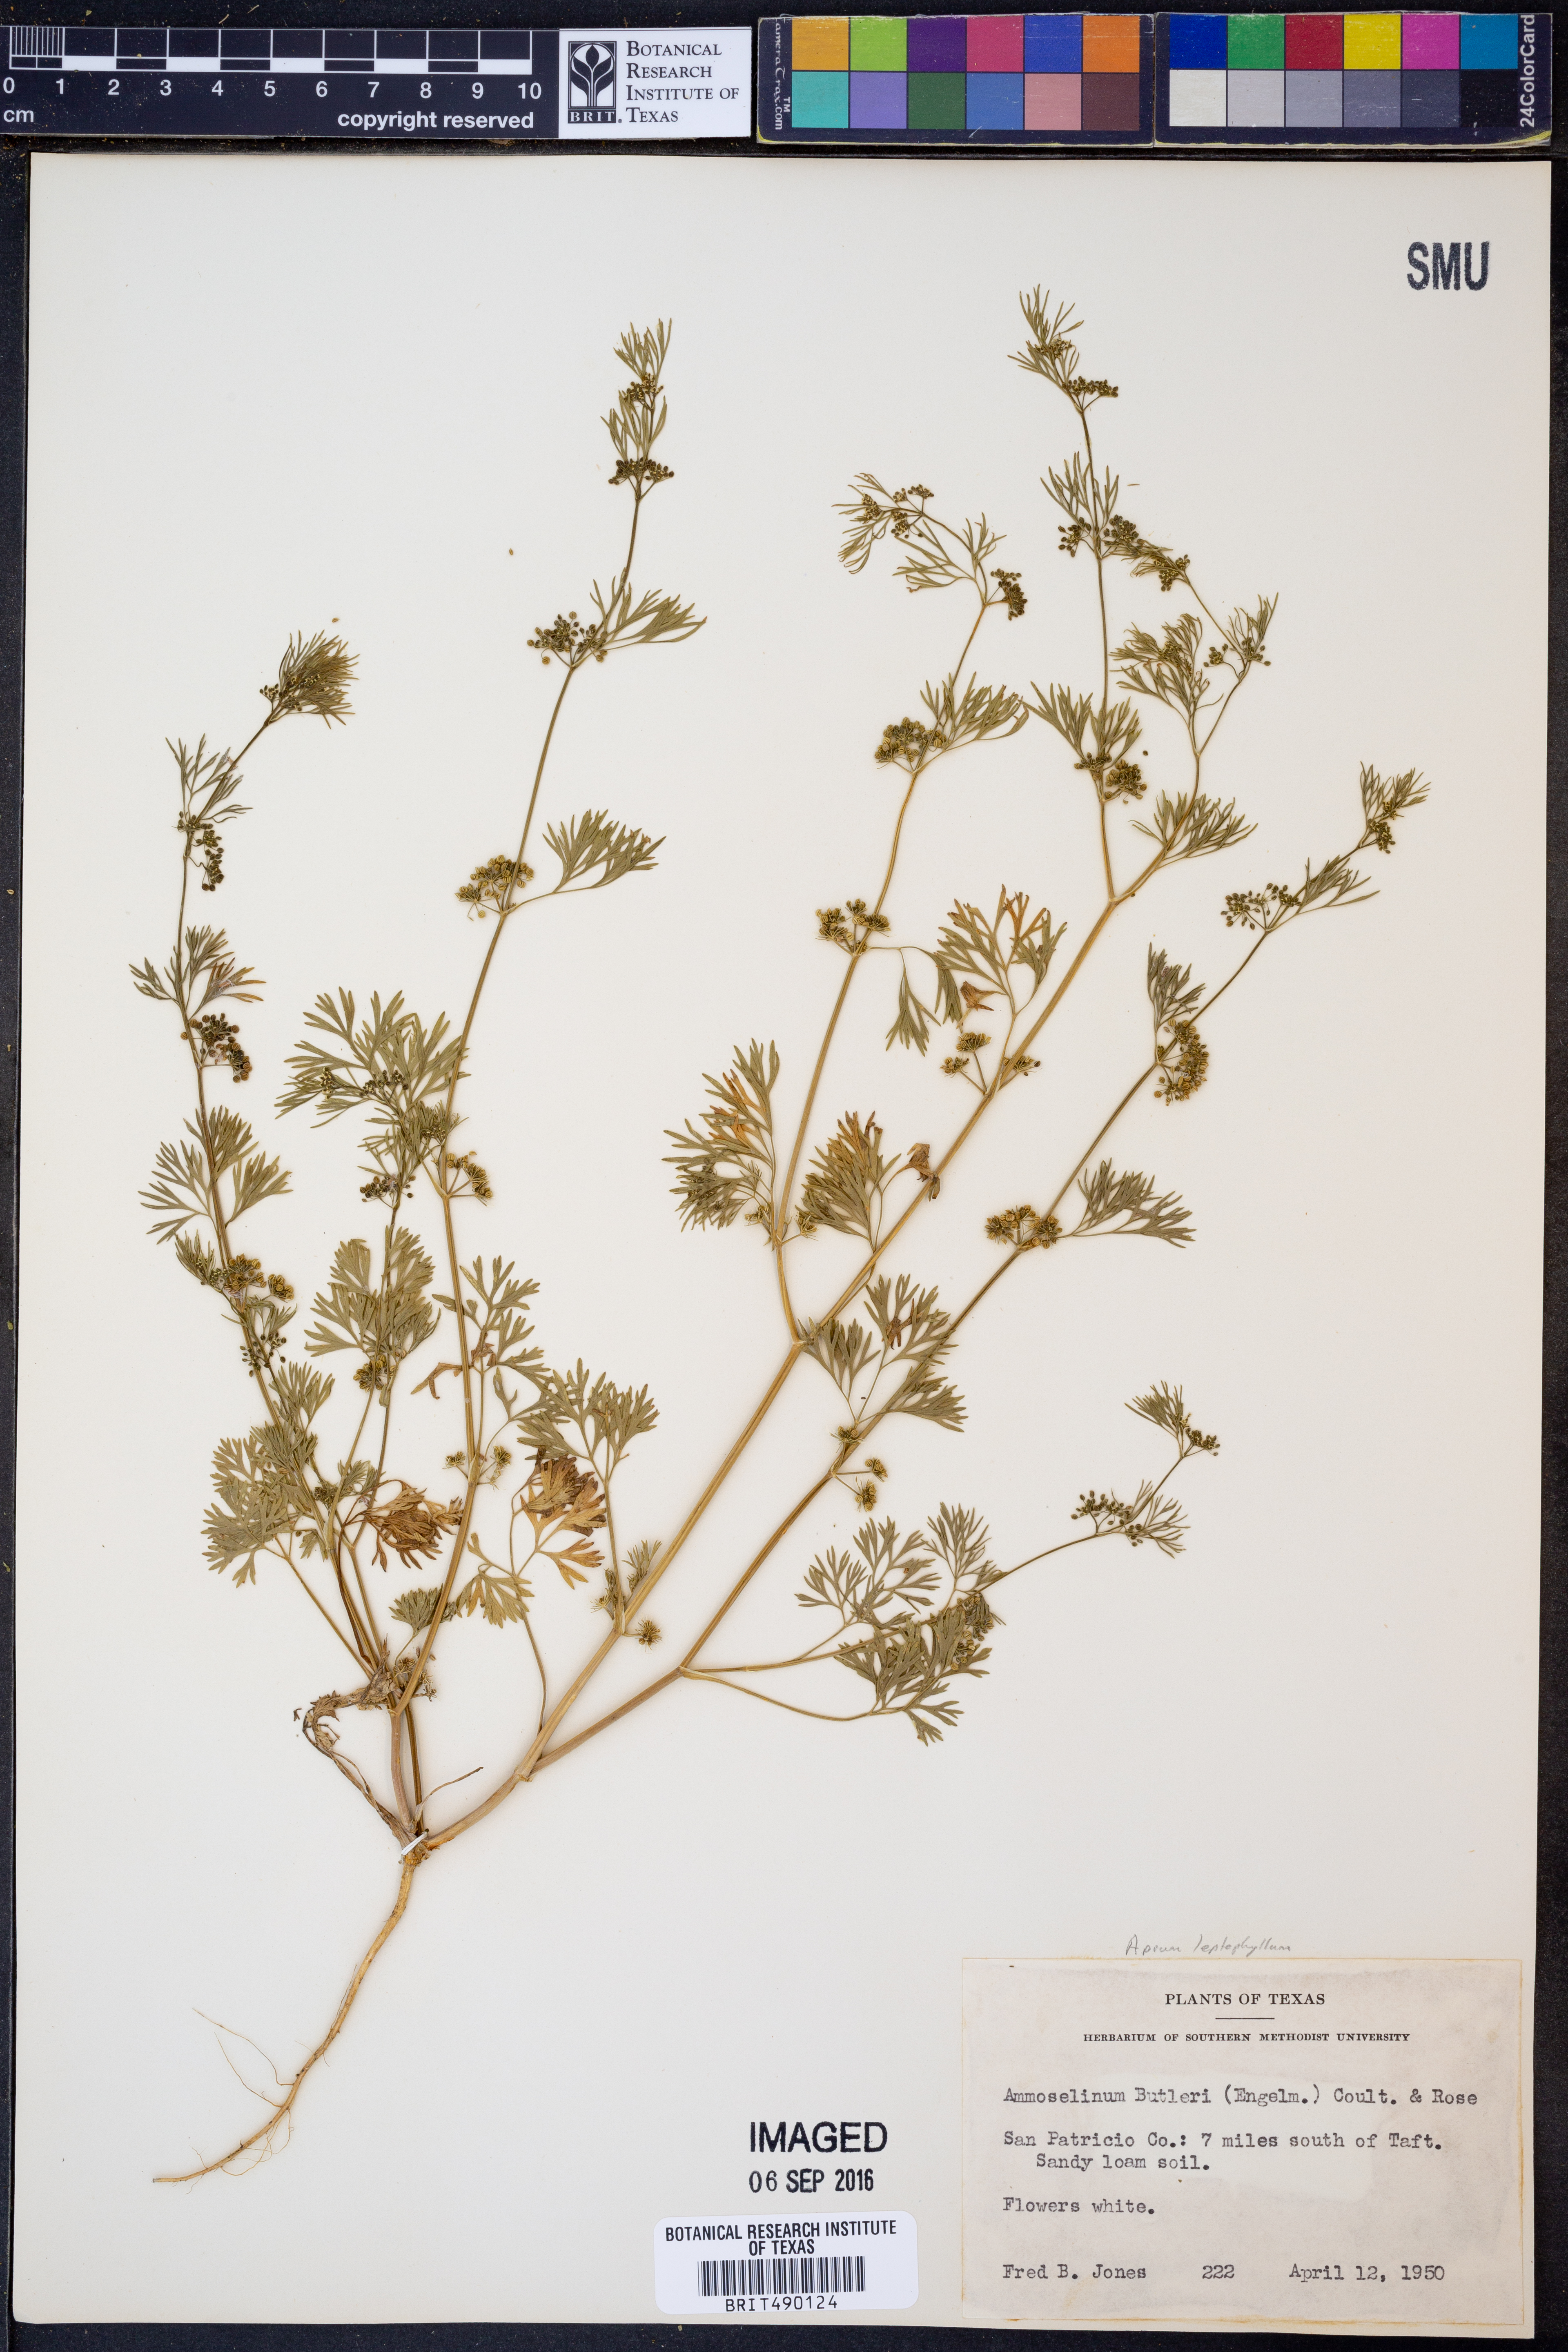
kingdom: Plantae
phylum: Tracheophyta
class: Magnoliopsida
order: Apiales
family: Apiaceae
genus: Cyclospermum
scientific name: Cyclospermum leptophyllum
